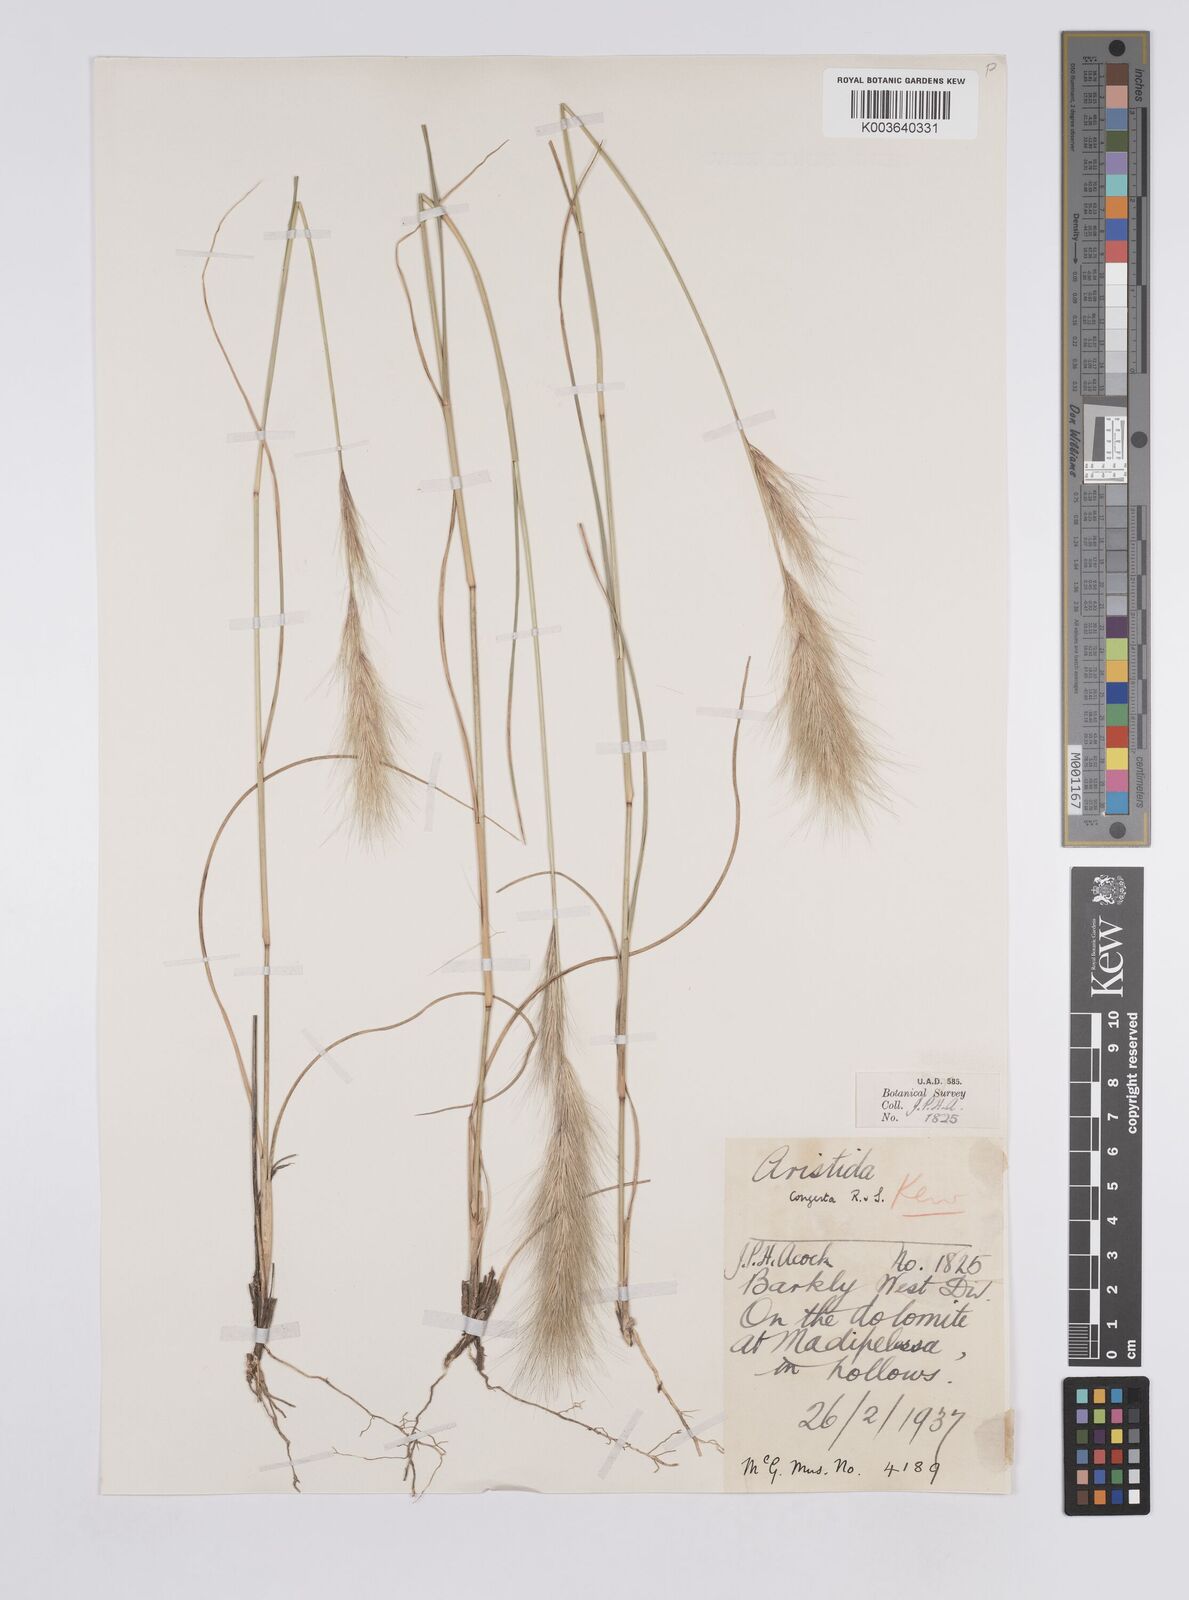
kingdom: Plantae
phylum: Tracheophyta
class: Liliopsida
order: Poales
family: Poaceae
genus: Aristida
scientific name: Aristida congesta
